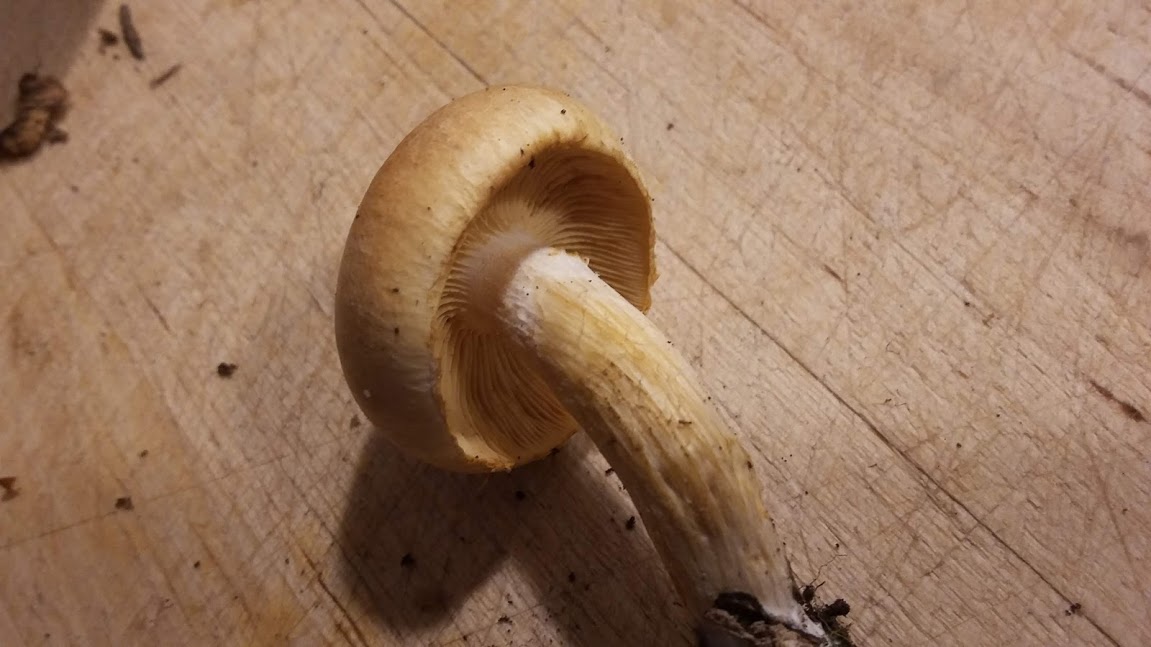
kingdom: Fungi
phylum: Basidiomycota
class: Agaricomycetes
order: Agaricales
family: Hymenogastraceae
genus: Gymnopilus
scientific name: Gymnopilus penetrans
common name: plettet flammehat
